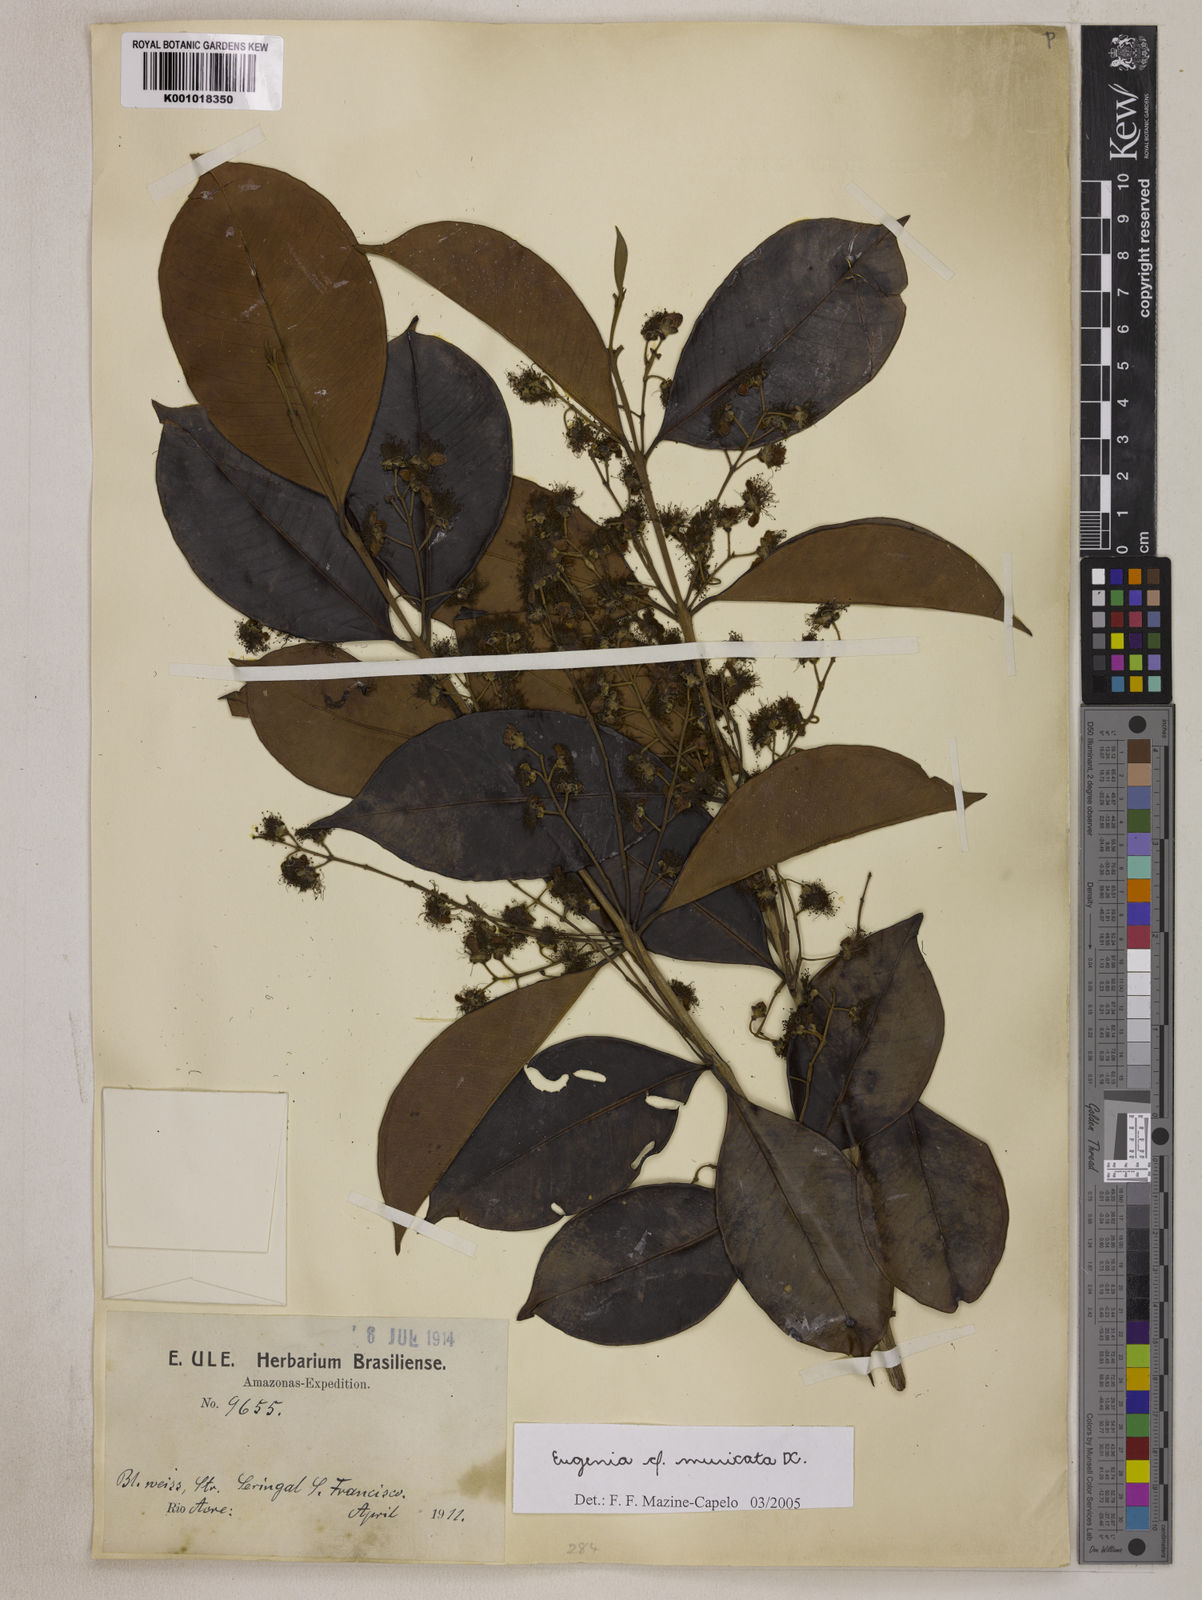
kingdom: Plantae
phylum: Tracheophyta
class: Magnoliopsida
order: Myrtales
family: Myrtaceae
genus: Eugenia
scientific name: Eugenia muricata
